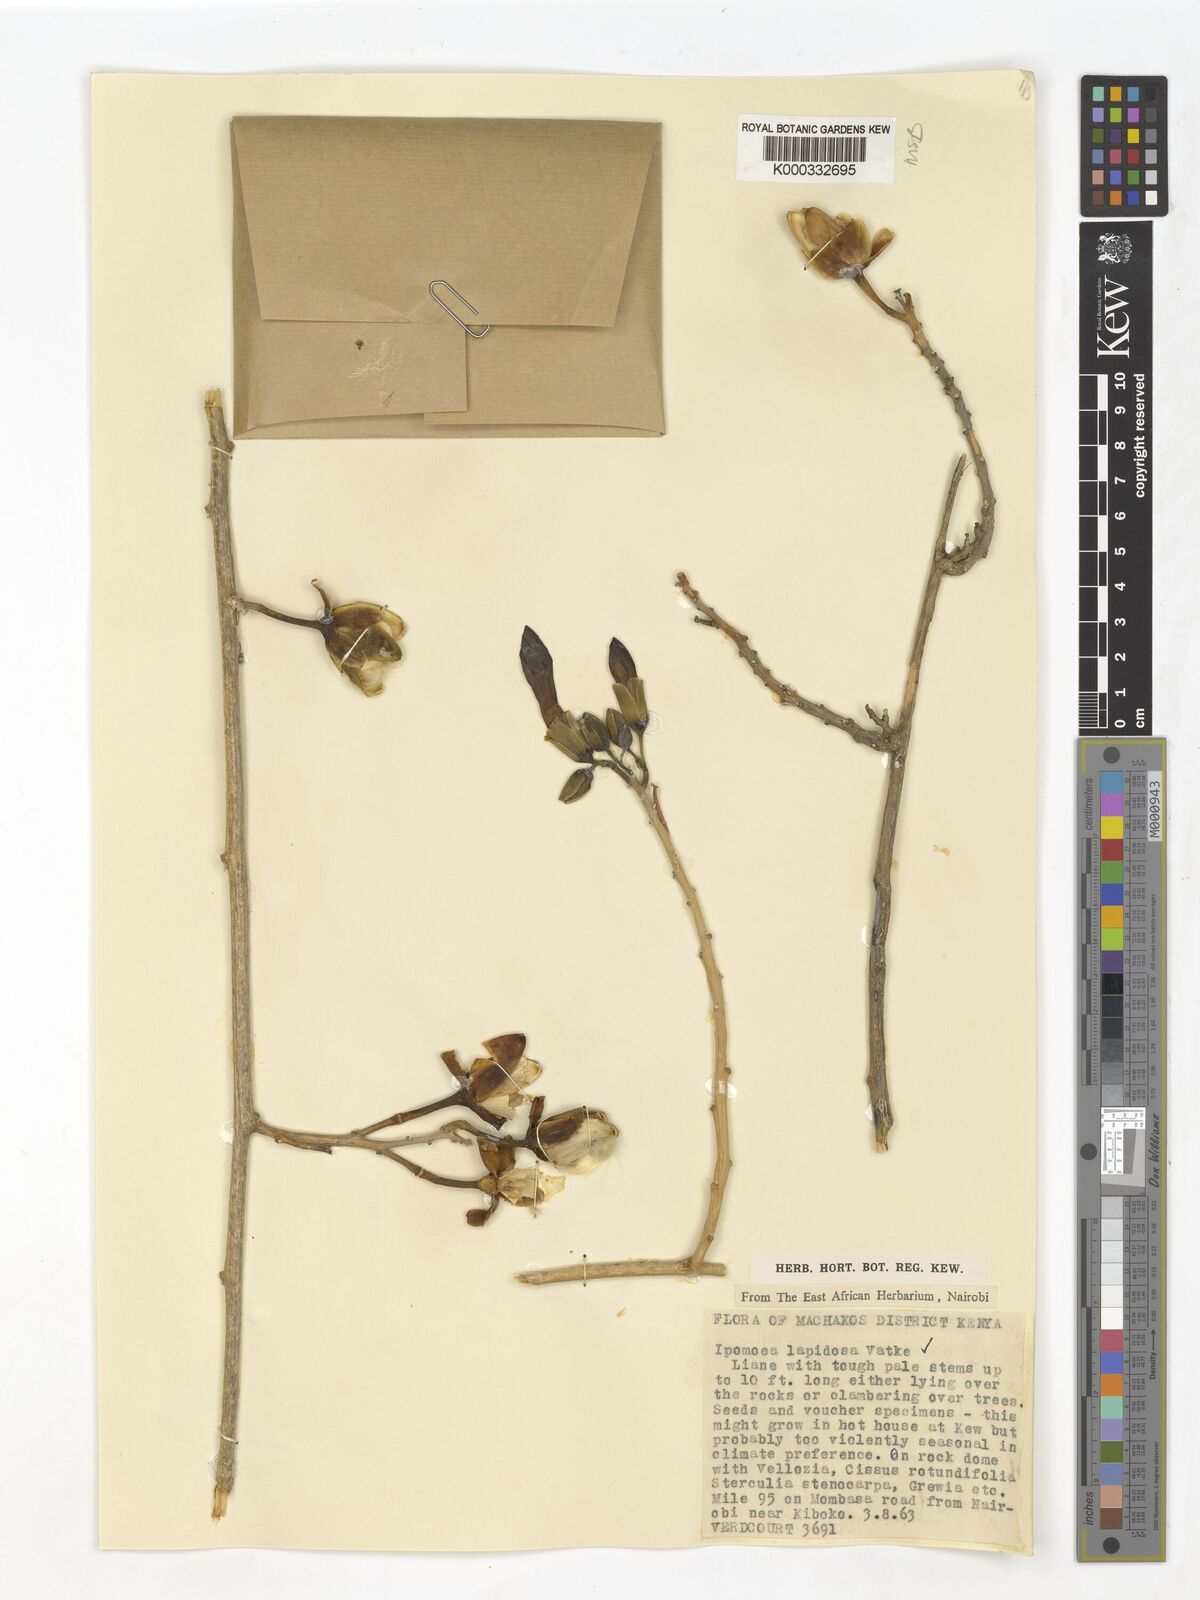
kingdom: Plantae
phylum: Tracheophyta
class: Magnoliopsida
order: Solanales
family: Convolvulaceae
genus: Ipomoea
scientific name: Ipomoea lapidosa
